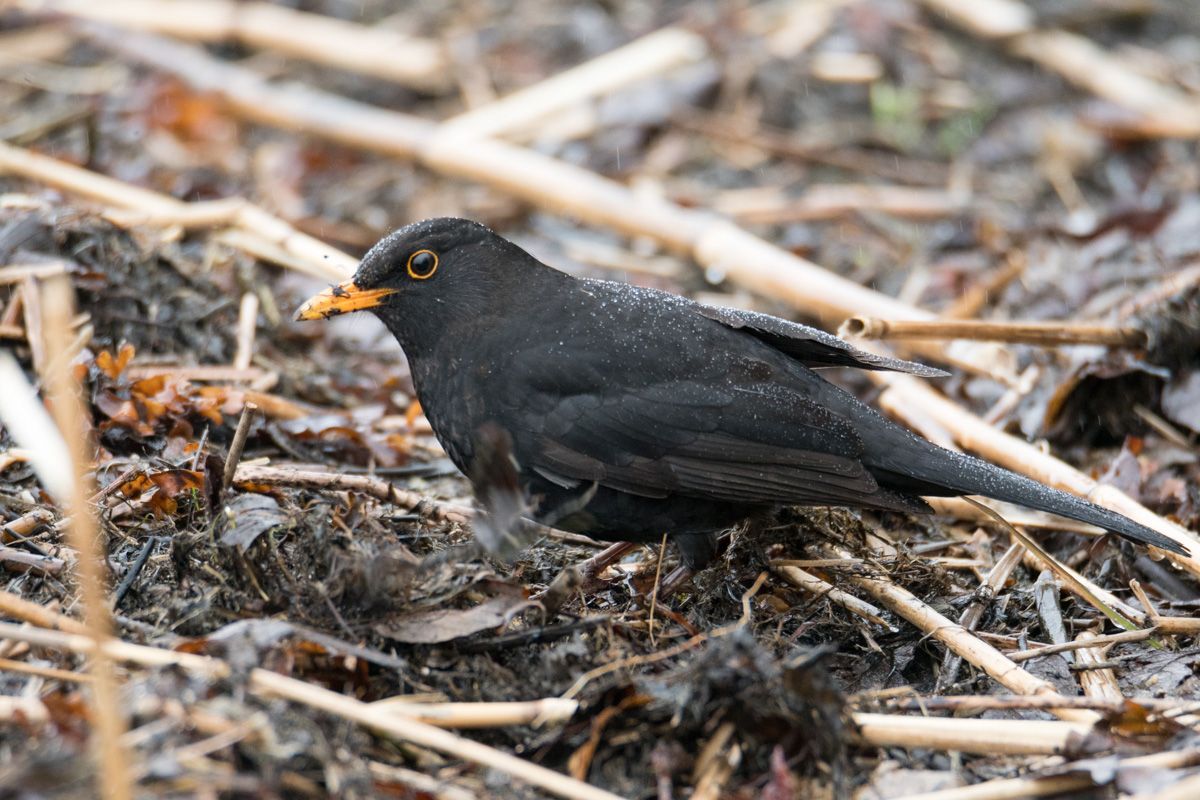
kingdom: Animalia
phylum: Chordata
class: Aves
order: Passeriformes
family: Turdidae
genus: Turdus
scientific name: Turdus merula
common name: Common blackbird
